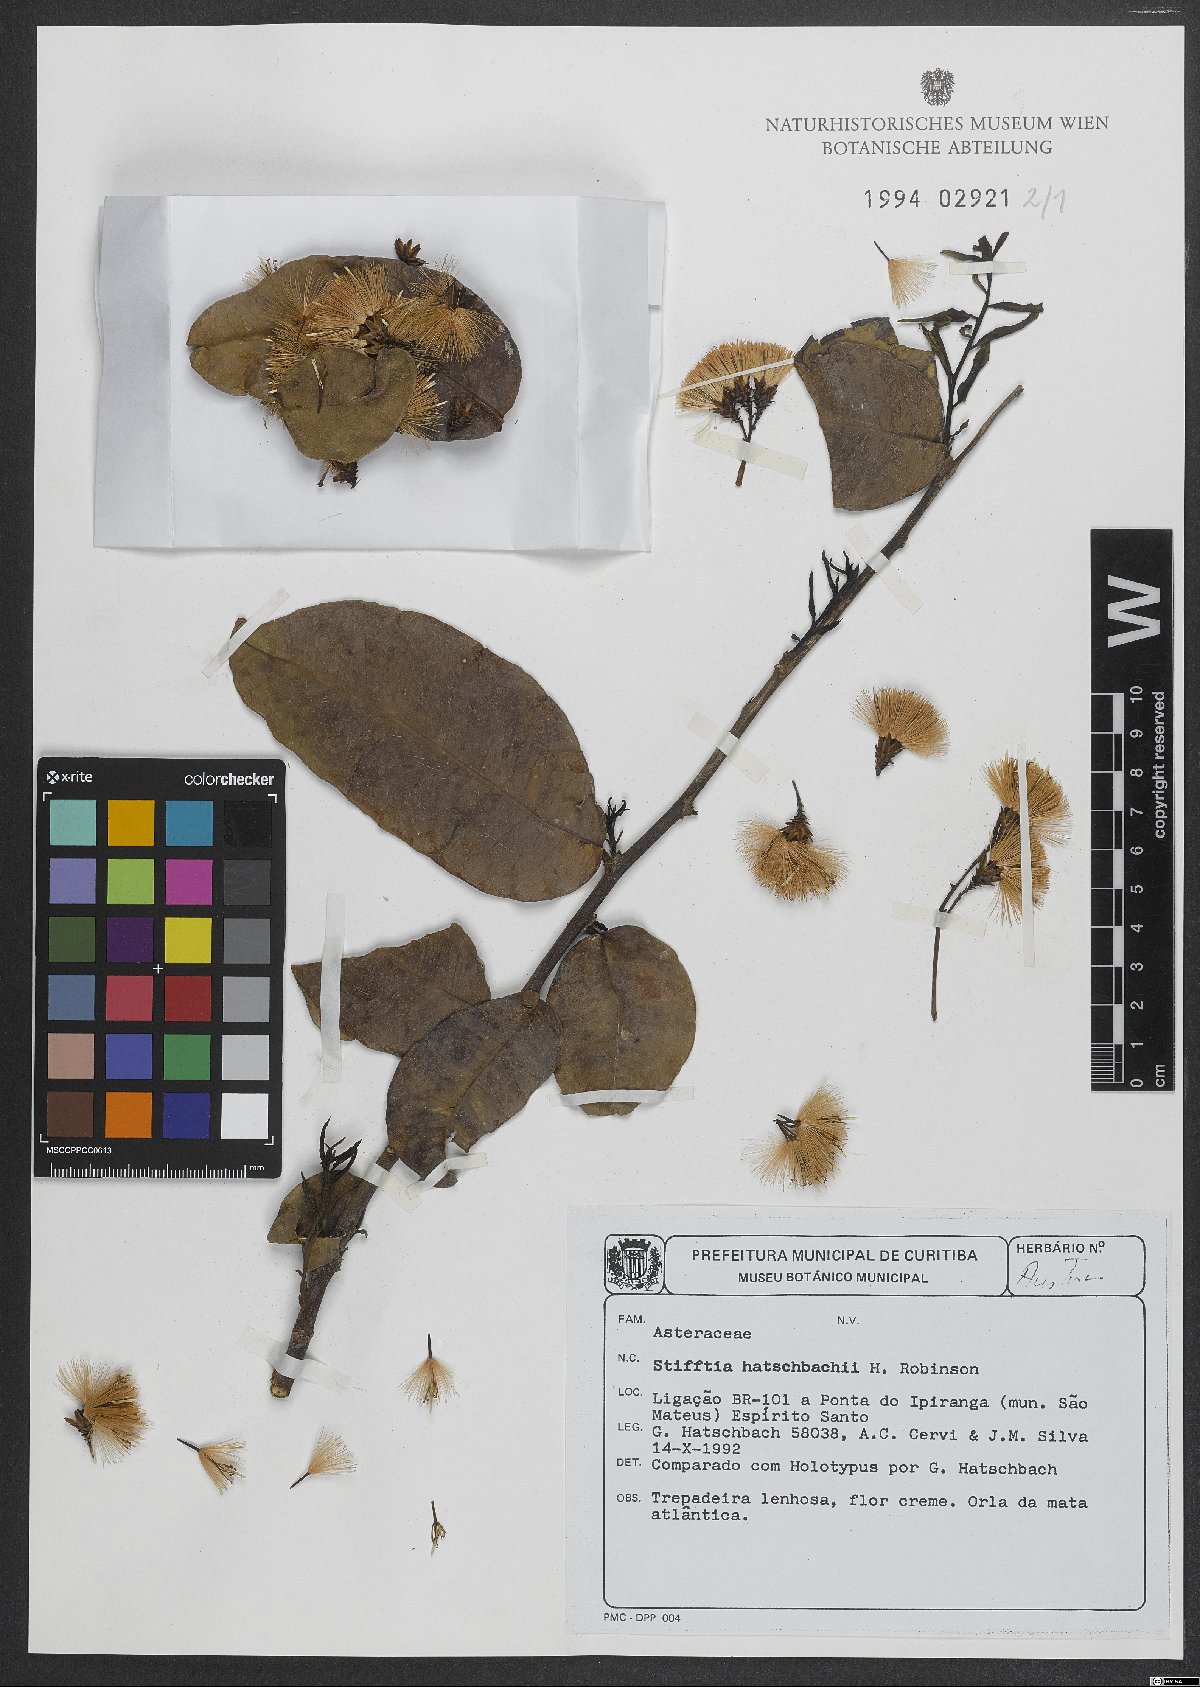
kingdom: Plantae
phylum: Tracheophyta
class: Magnoliopsida
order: Asterales
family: Asteraceae
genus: Stifftia
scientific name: Stifftia hatschbachii
